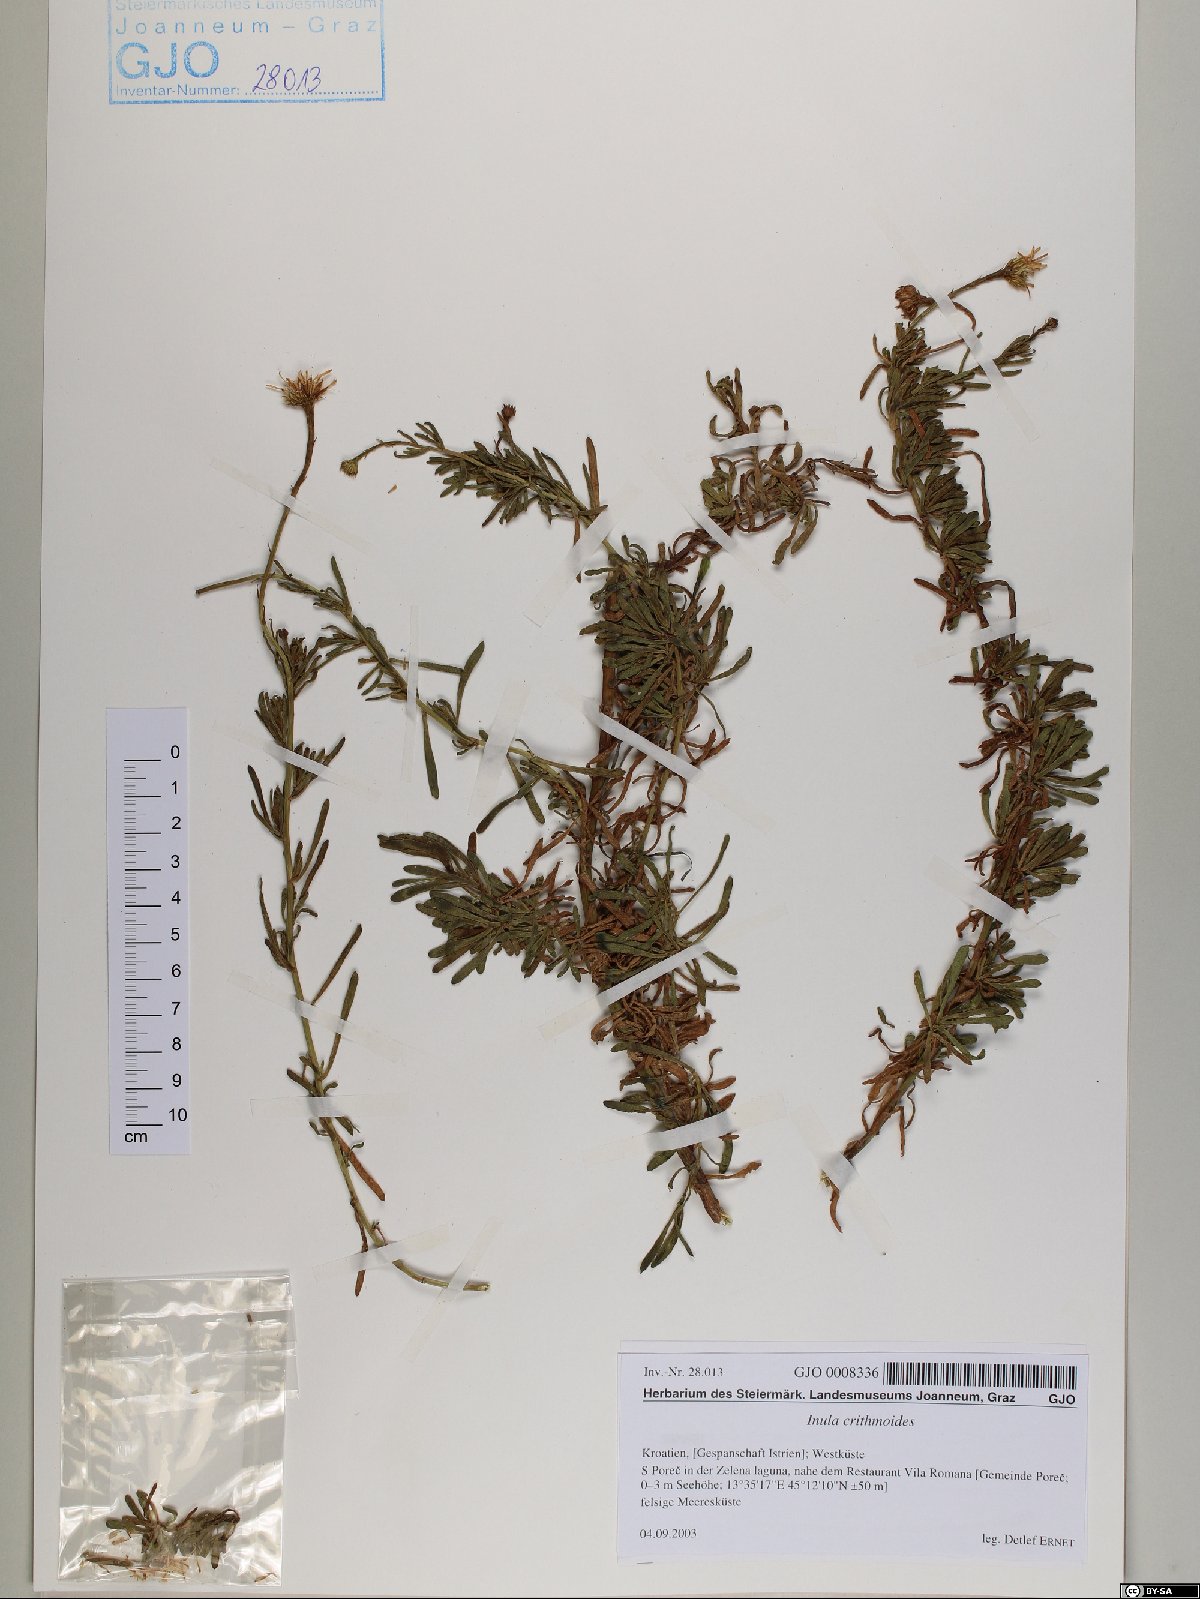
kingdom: Plantae
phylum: Tracheophyta
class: Magnoliopsida
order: Asterales
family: Asteraceae
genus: Limbarda
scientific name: Limbarda crithmoides
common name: Golden samphire
